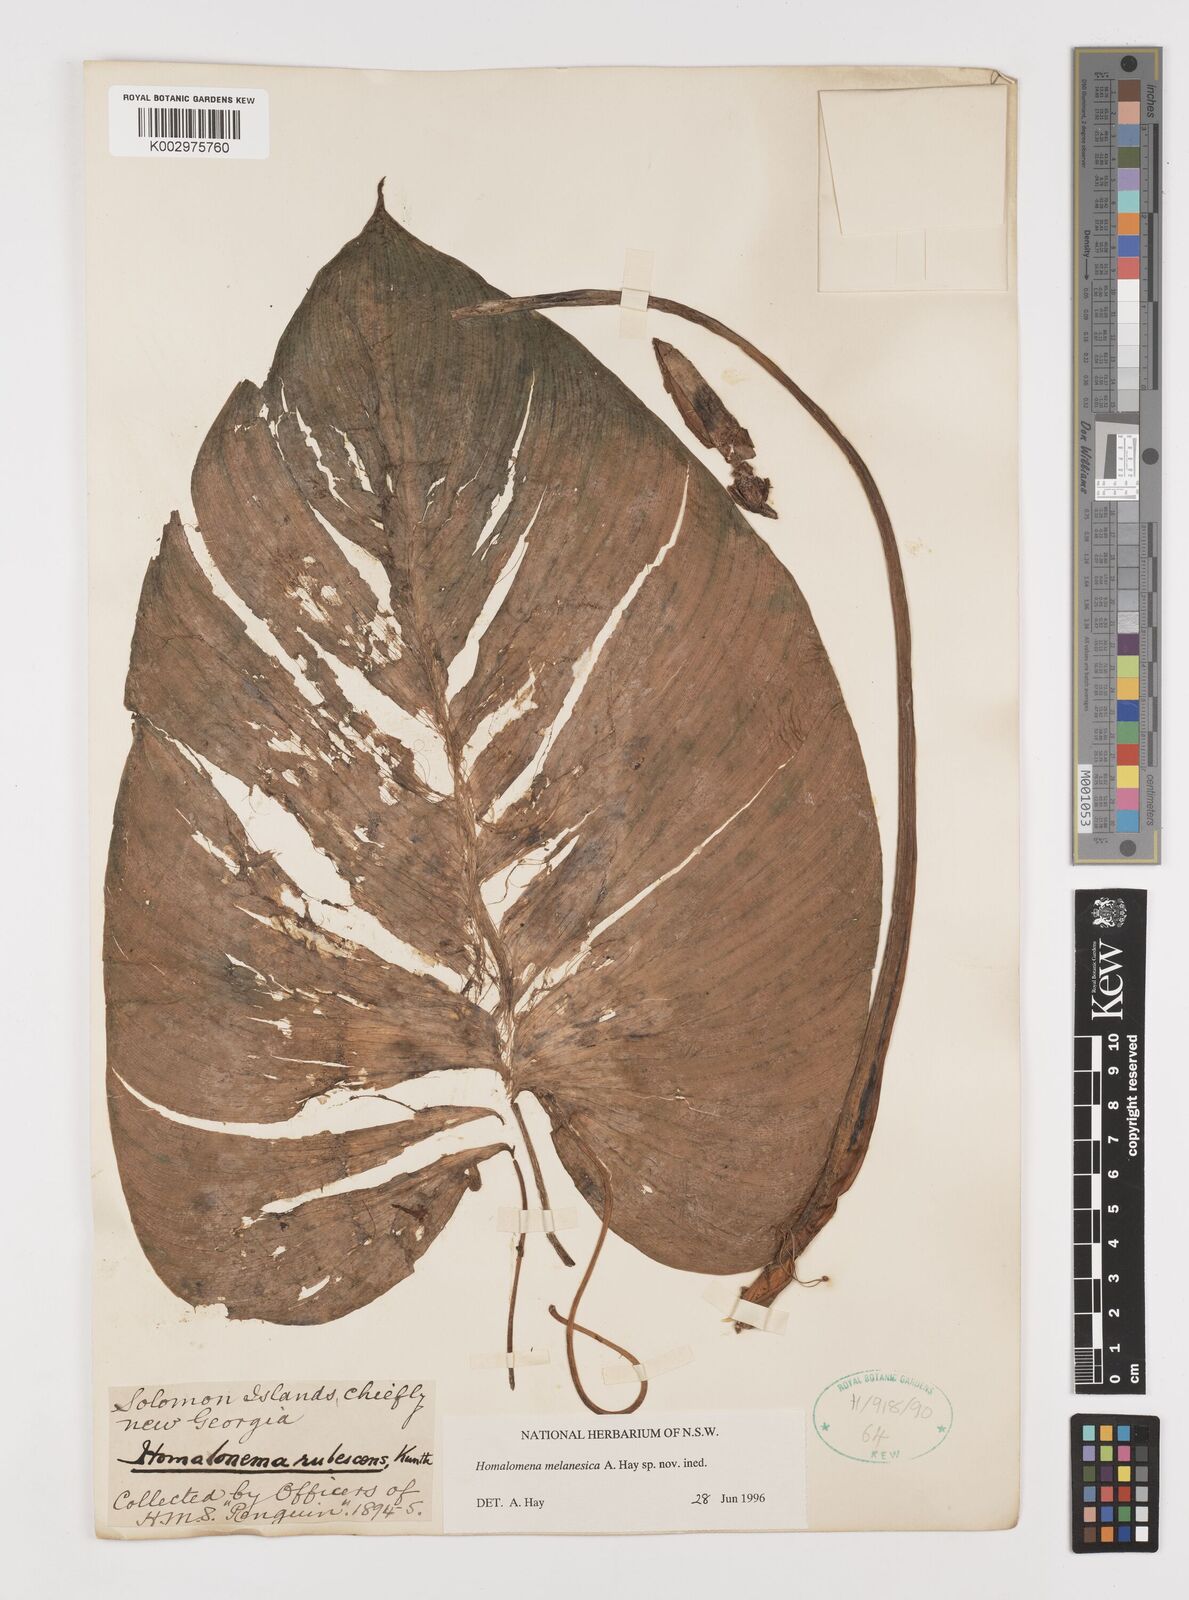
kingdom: Plantae
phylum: Tracheophyta
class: Liliopsida
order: Alismatales
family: Araceae
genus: Homalomena
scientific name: Homalomena melanesica
